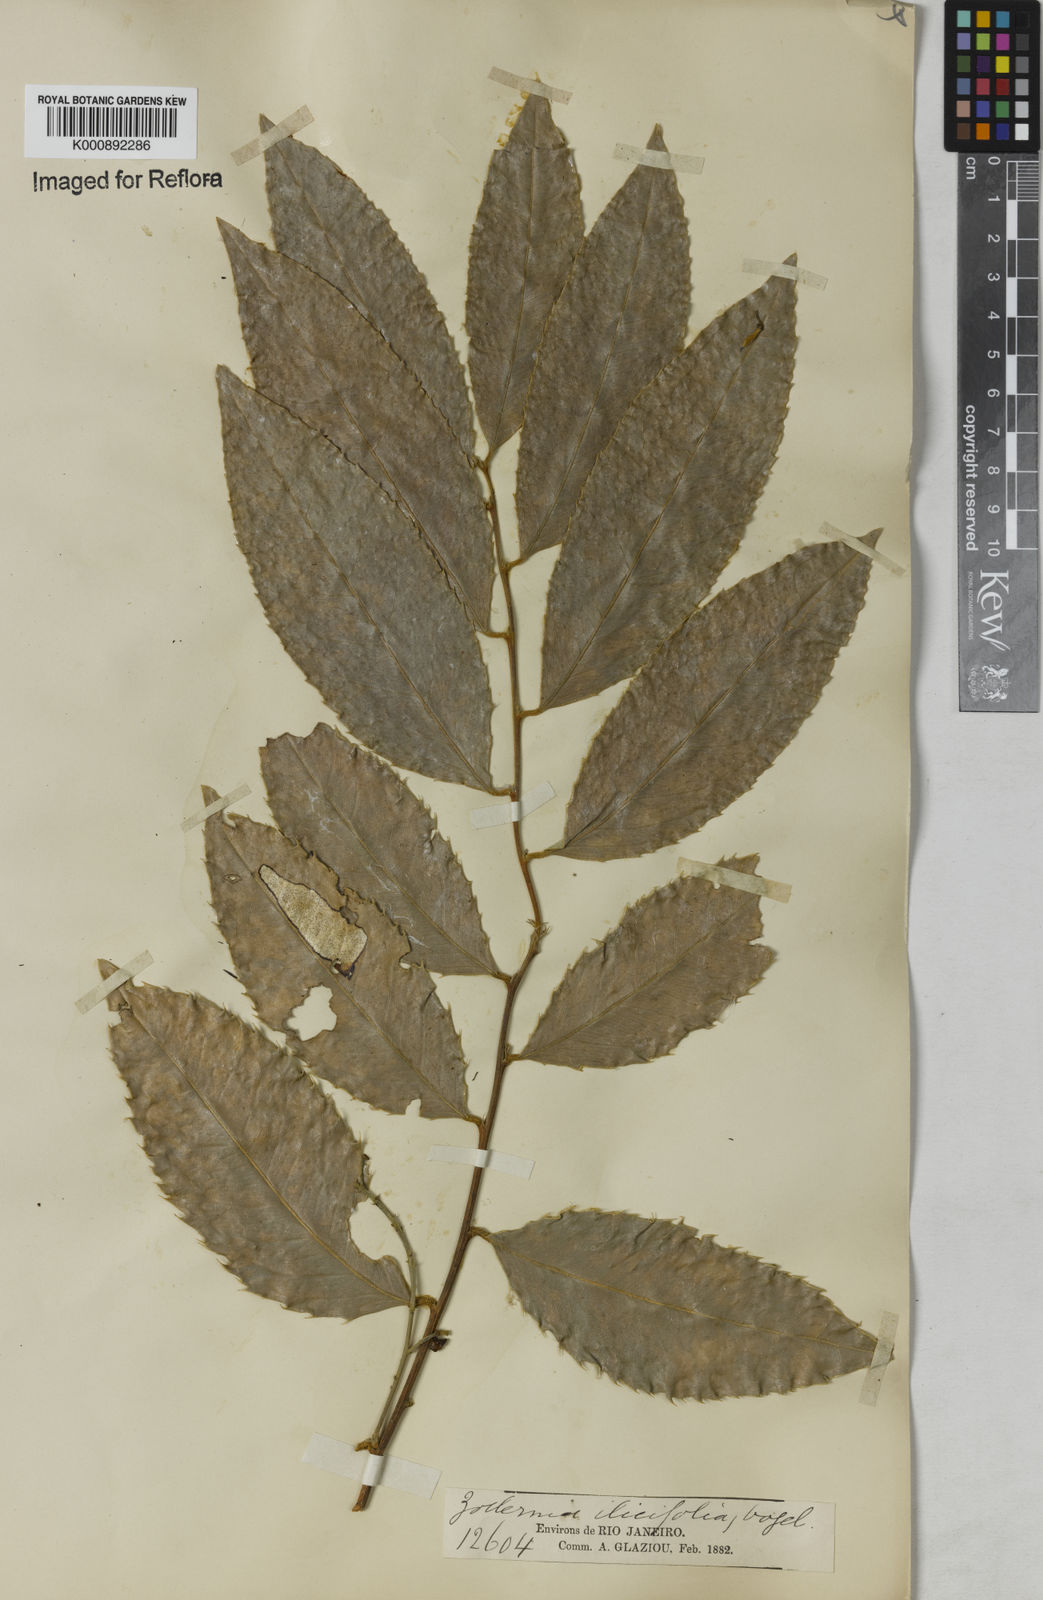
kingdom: Plantae
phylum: Tracheophyta
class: Magnoliopsida
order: Fabales
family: Fabaceae
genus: Zollernia
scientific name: Zollernia ilicifolia
